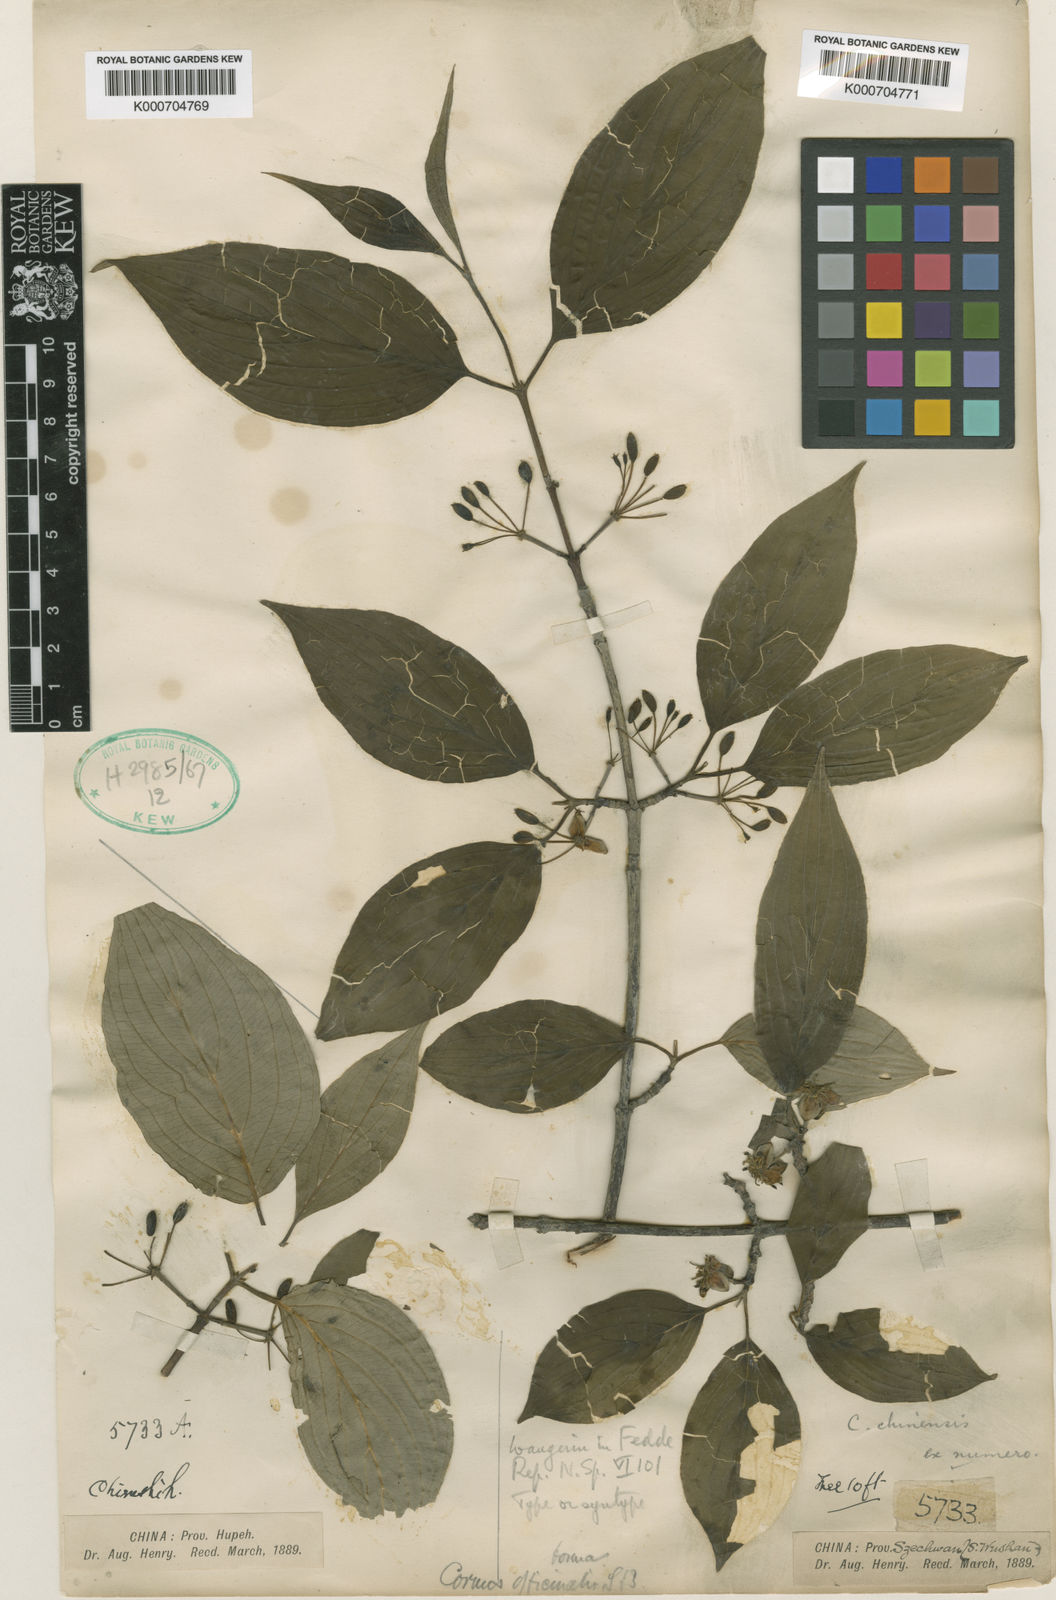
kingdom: Plantae
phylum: Tracheophyta
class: Magnoliopsida
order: Cornales
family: Cornaceae
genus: Cornus
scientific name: Cornus officinalis
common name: Asiatic dogwood
